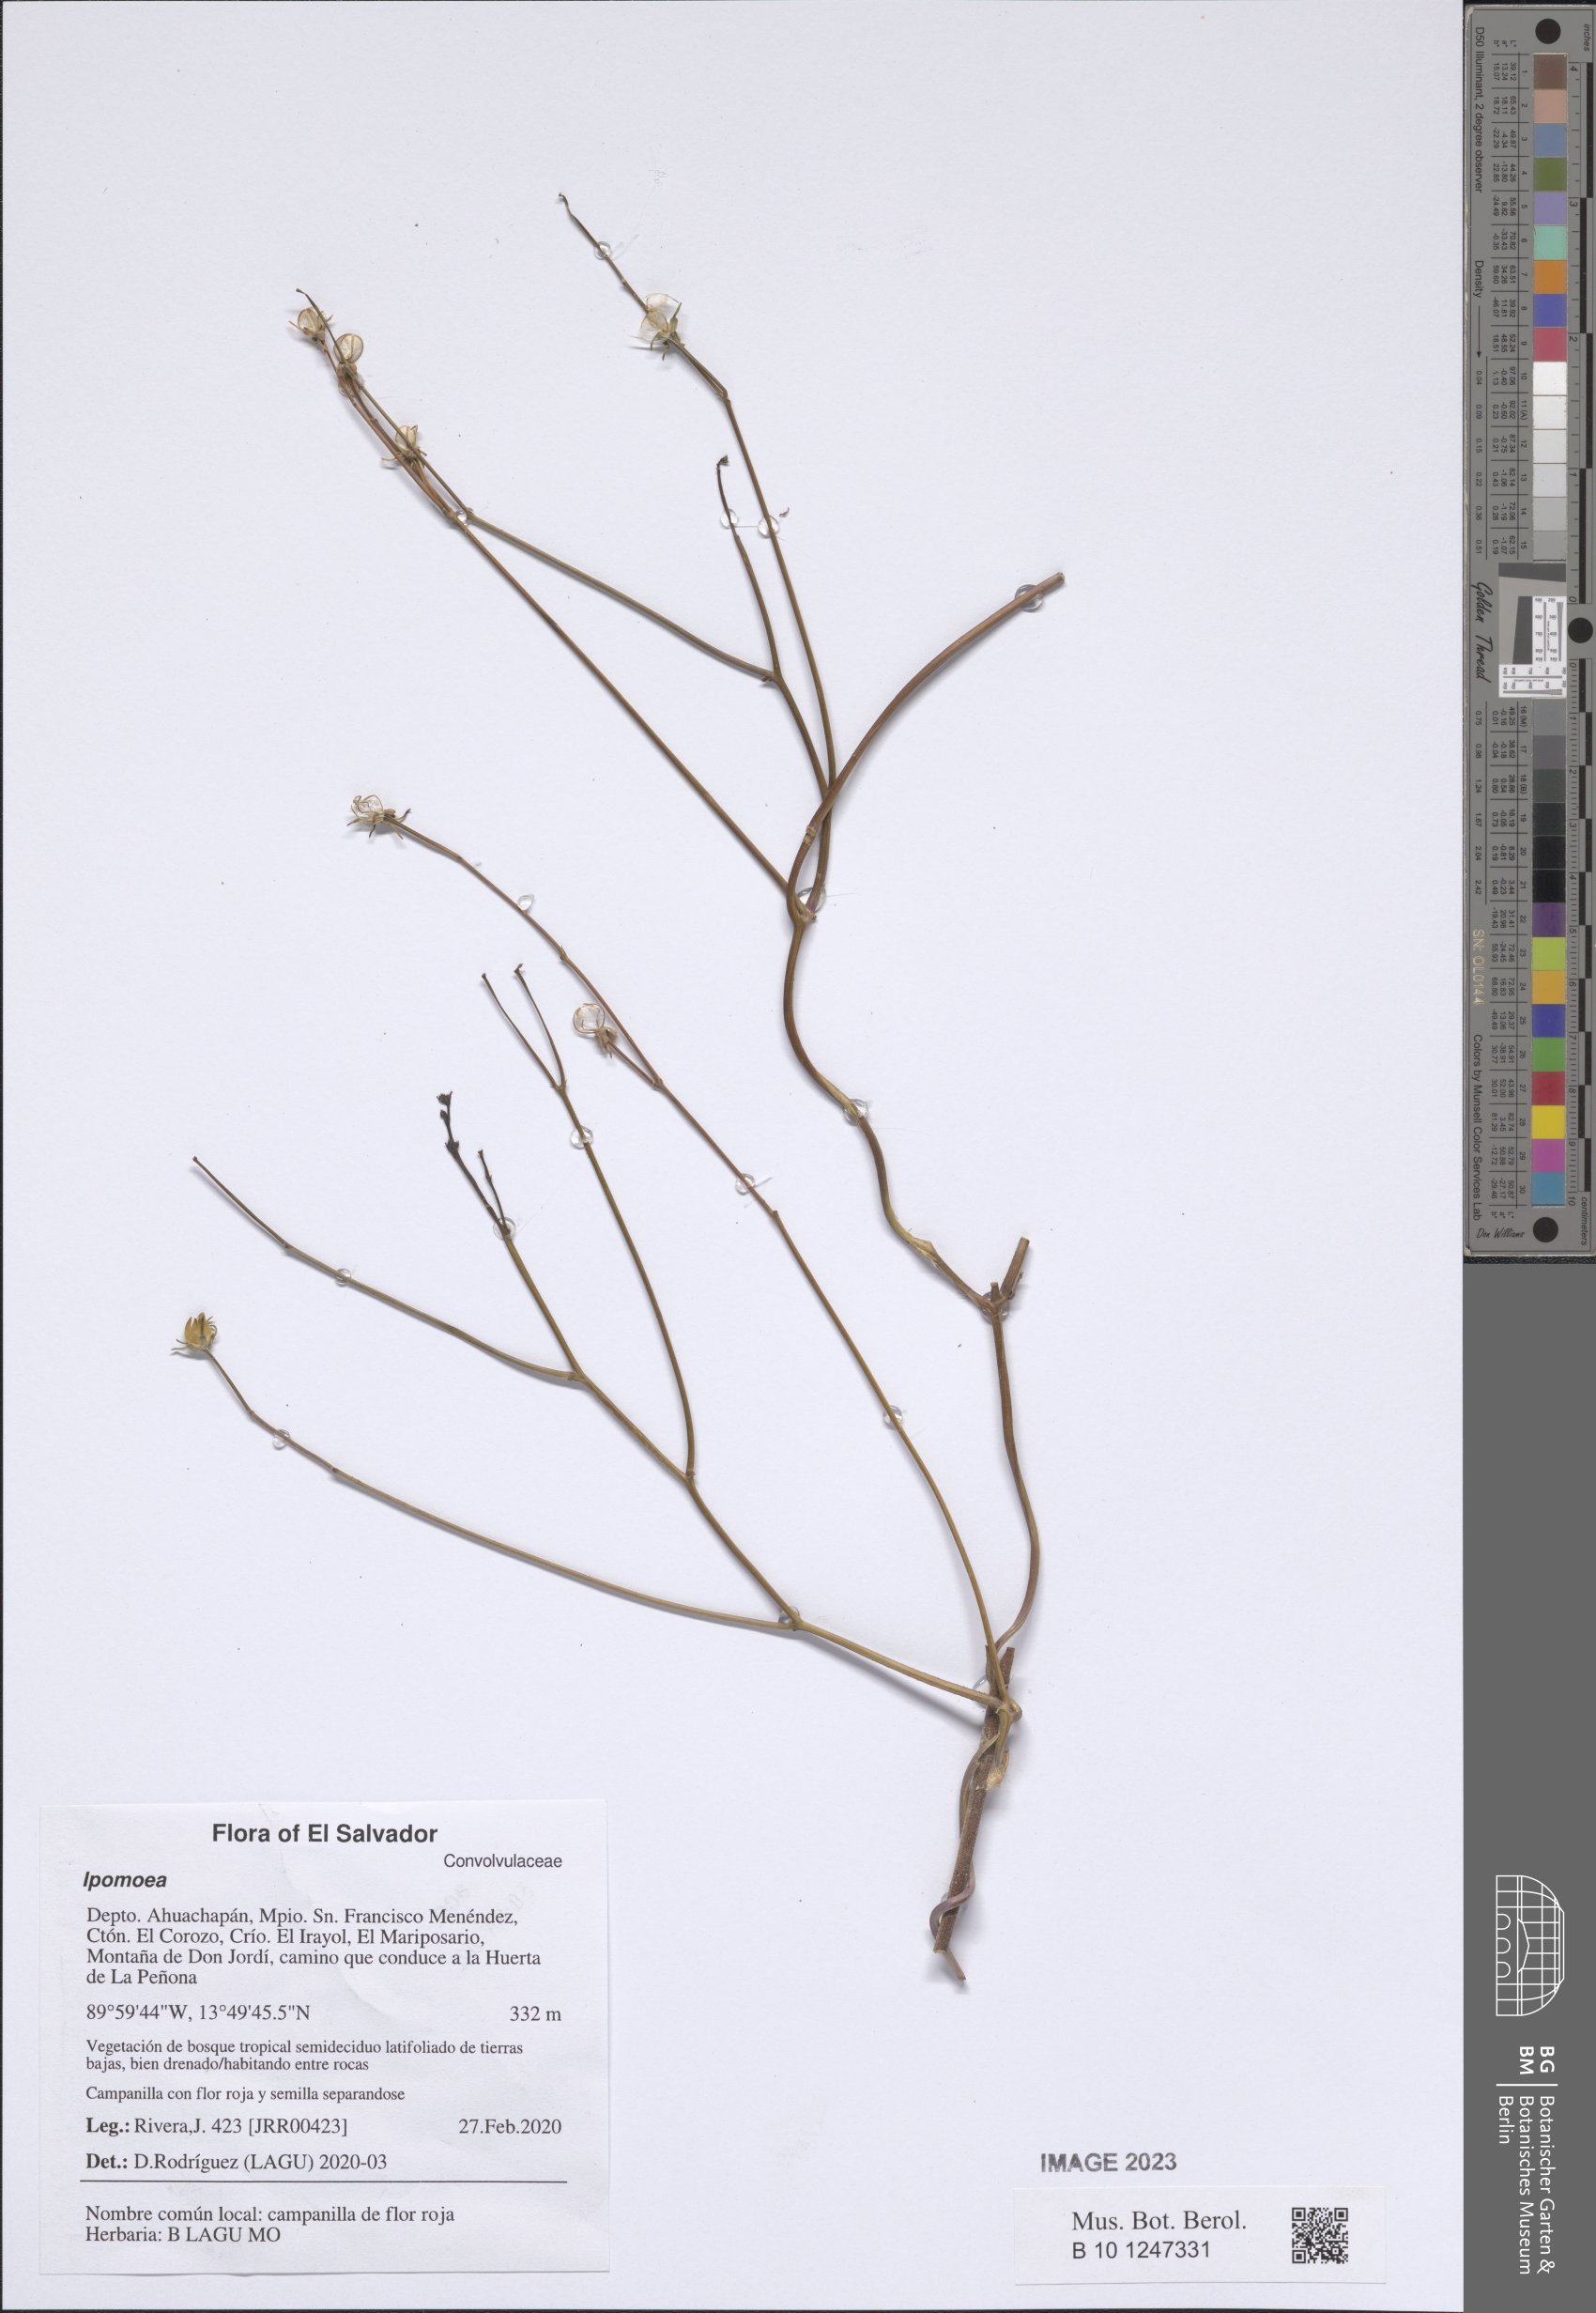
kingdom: Plantae
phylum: Tracheophyta
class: Magnoliopsida
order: Solanales
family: Convolvulaceae
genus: Ipomoea
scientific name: Ipomoea
